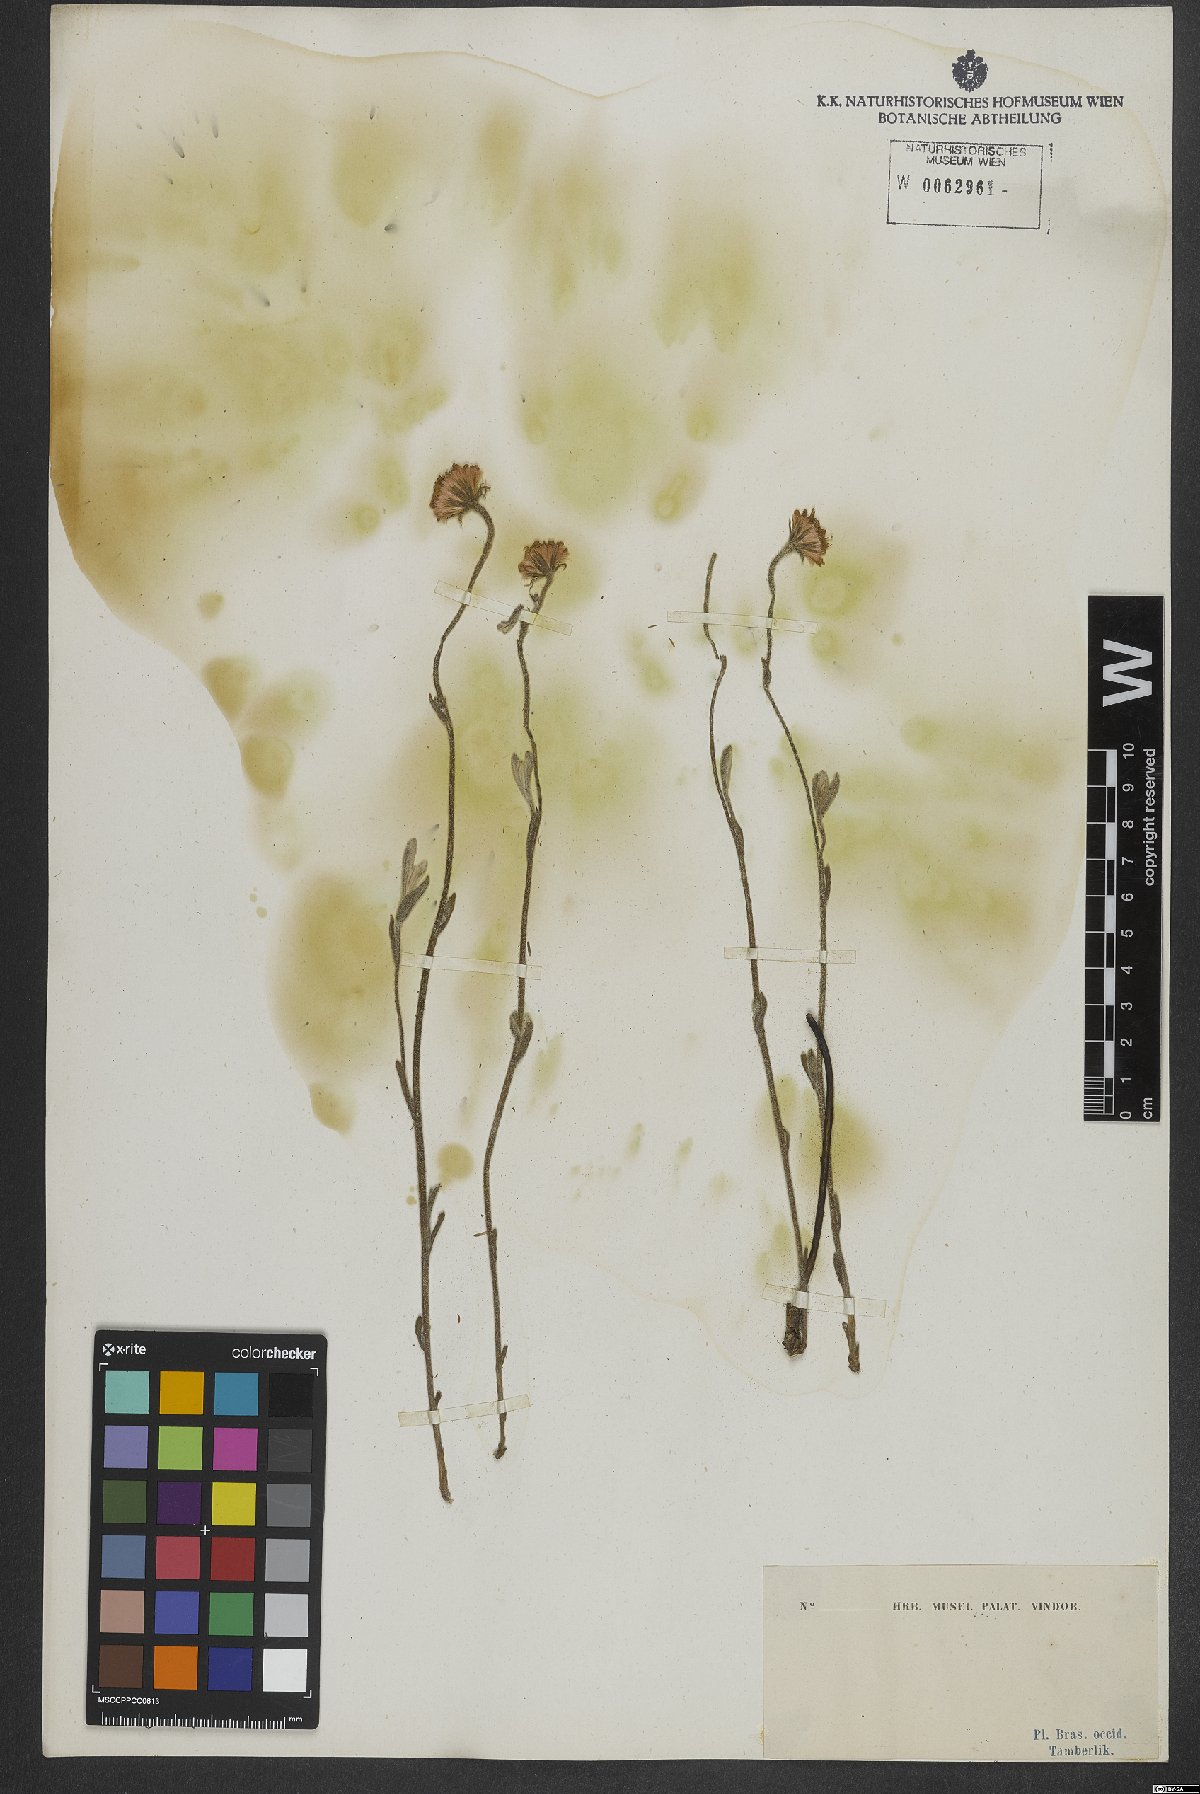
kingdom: Plantae
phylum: Tracheophyta
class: Magnoliopsida
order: Asterales
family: Asteraceae
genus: Conyza
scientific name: Conyza
